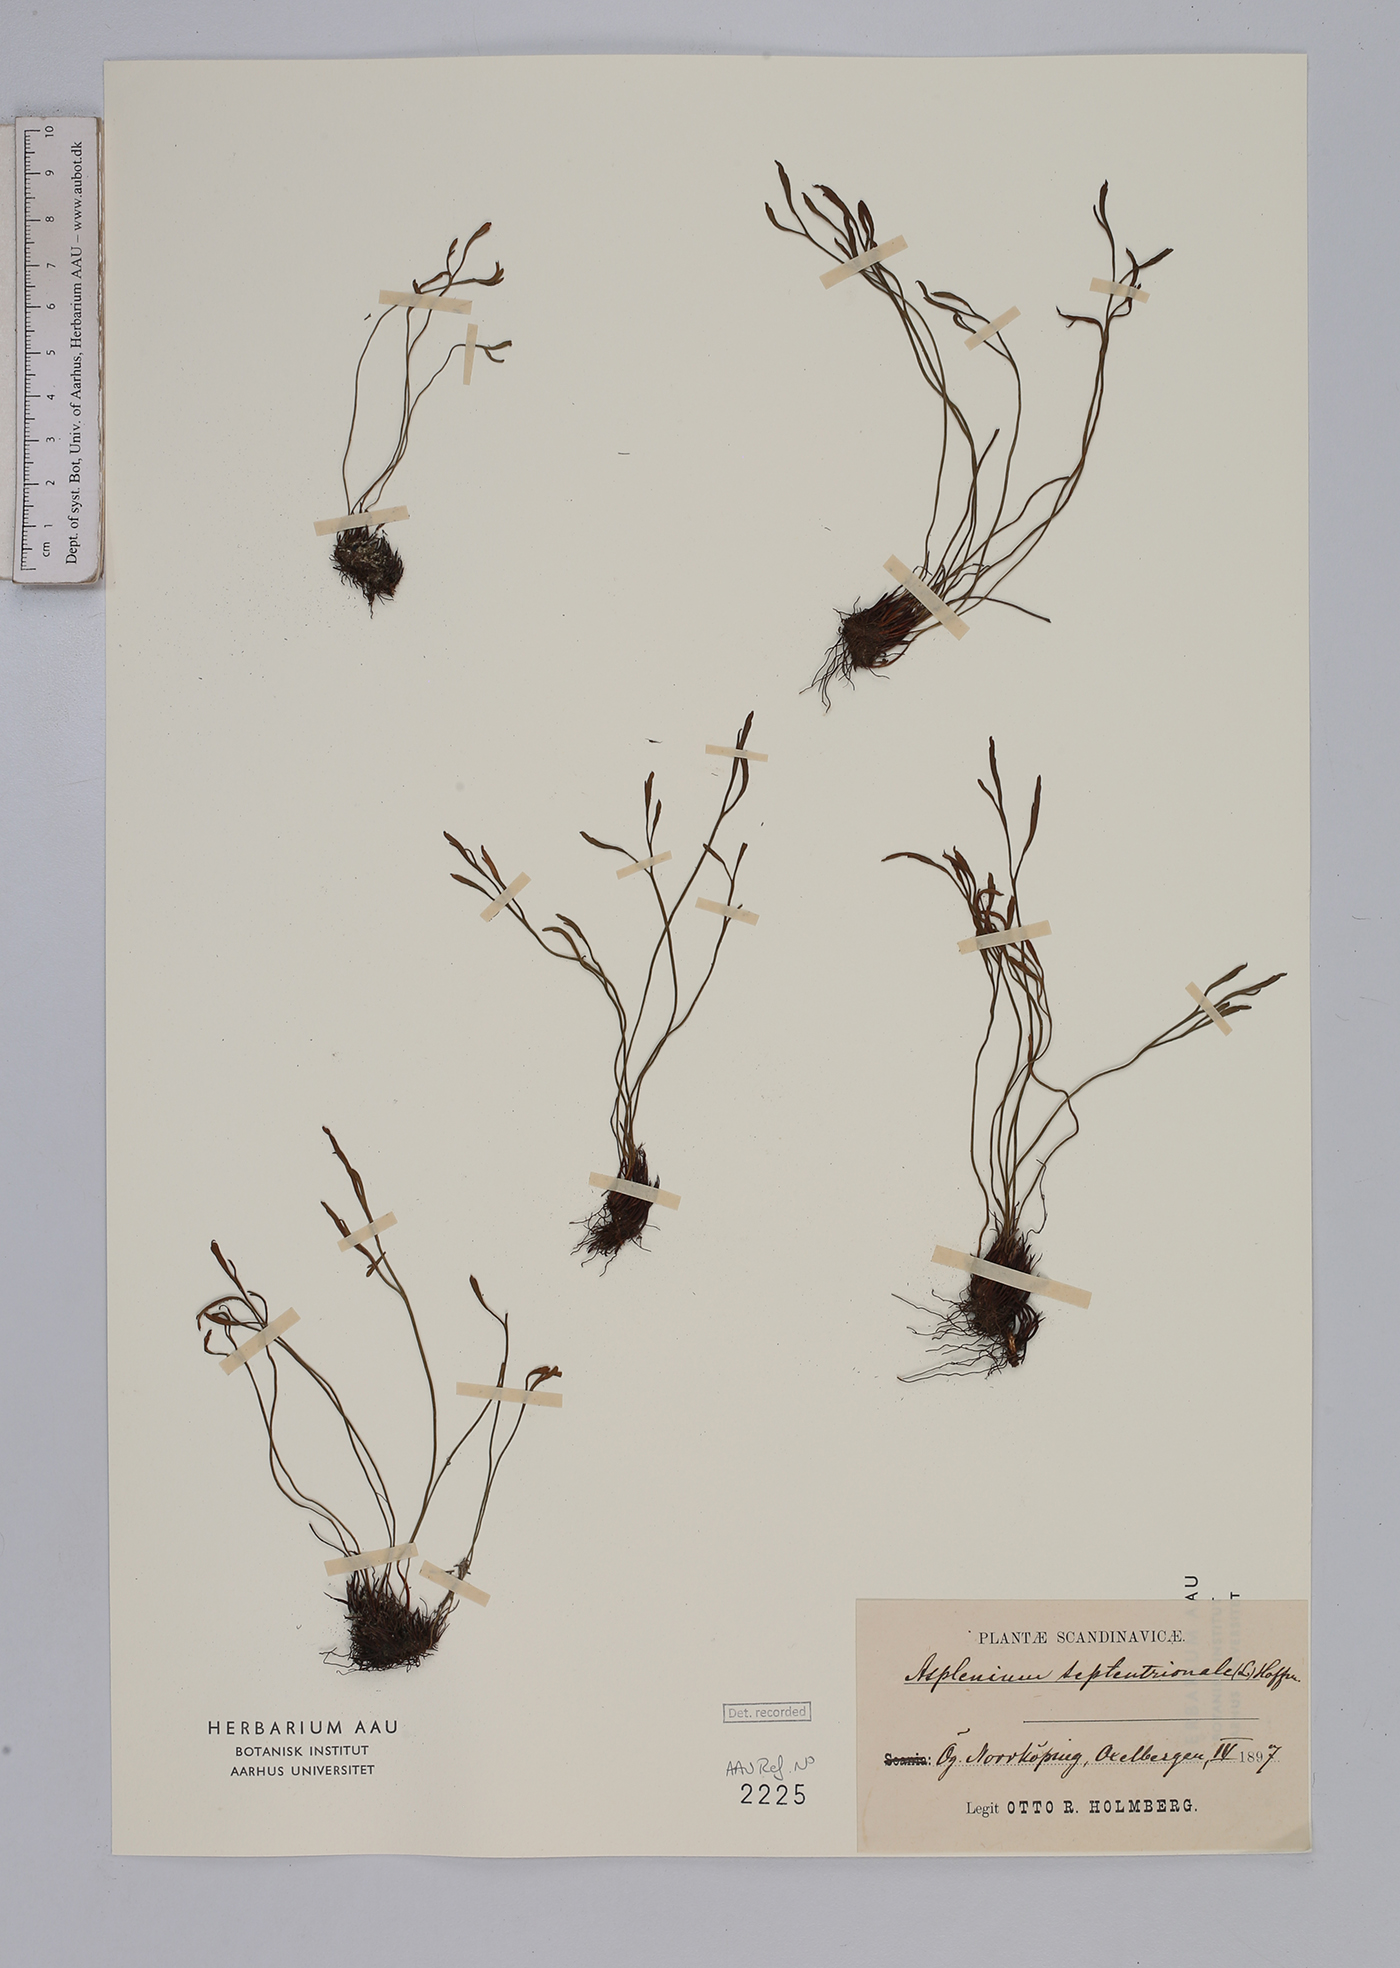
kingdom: Plantae
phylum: Tracheophyta
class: Polypodiopsida
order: Polypodiales
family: Aspleniaceae
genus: Asplenium
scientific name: Asplenium septentrionale
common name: Forked spleenwort
